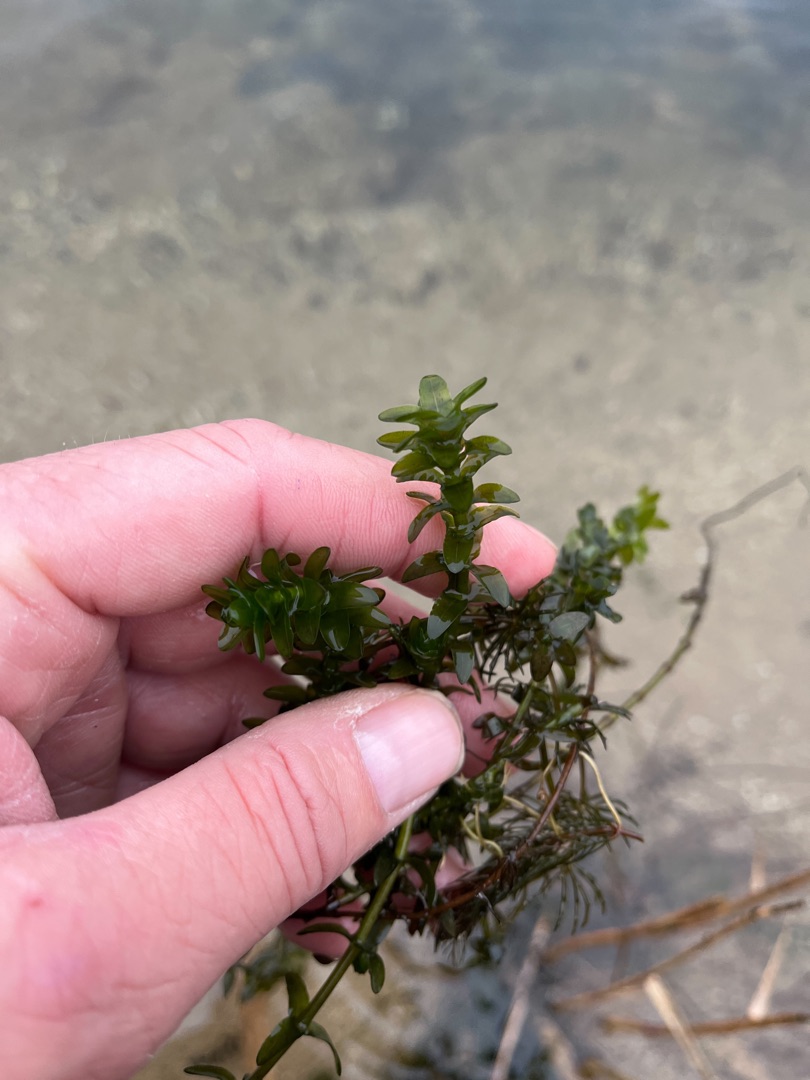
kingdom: Plantae
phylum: Tracheophyta
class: Liliopsida
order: Alismatales
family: Hydrocharitaceae
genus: Elodea
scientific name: Elodea canadensis
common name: Vandpest
